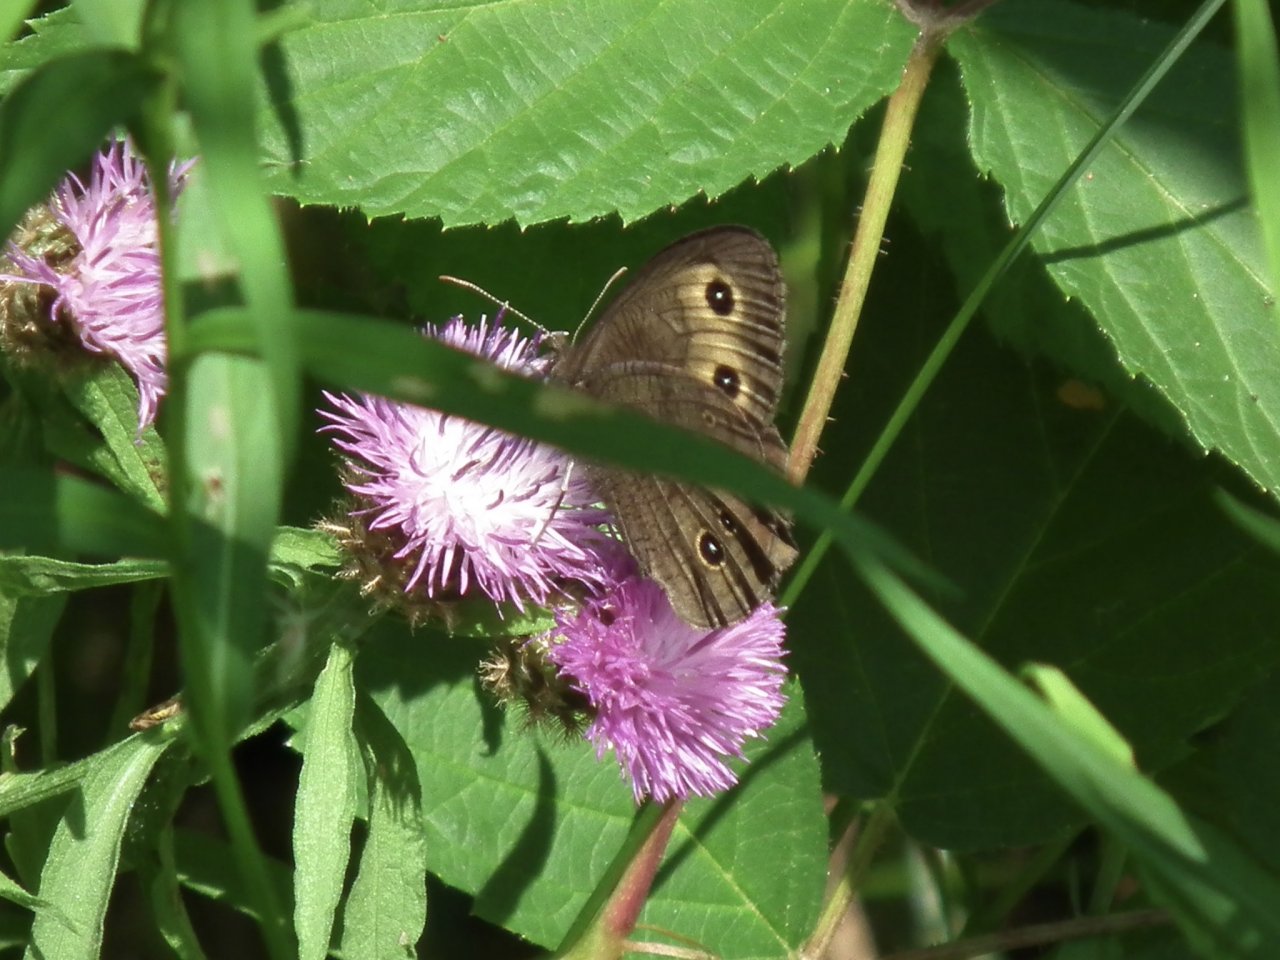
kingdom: Animalia
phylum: Arthropoda
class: Insecta
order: Lepidoptera
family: Nymphalidae
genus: Cercyonis
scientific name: Cercyonis pegala
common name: Common Wood-Nymph
